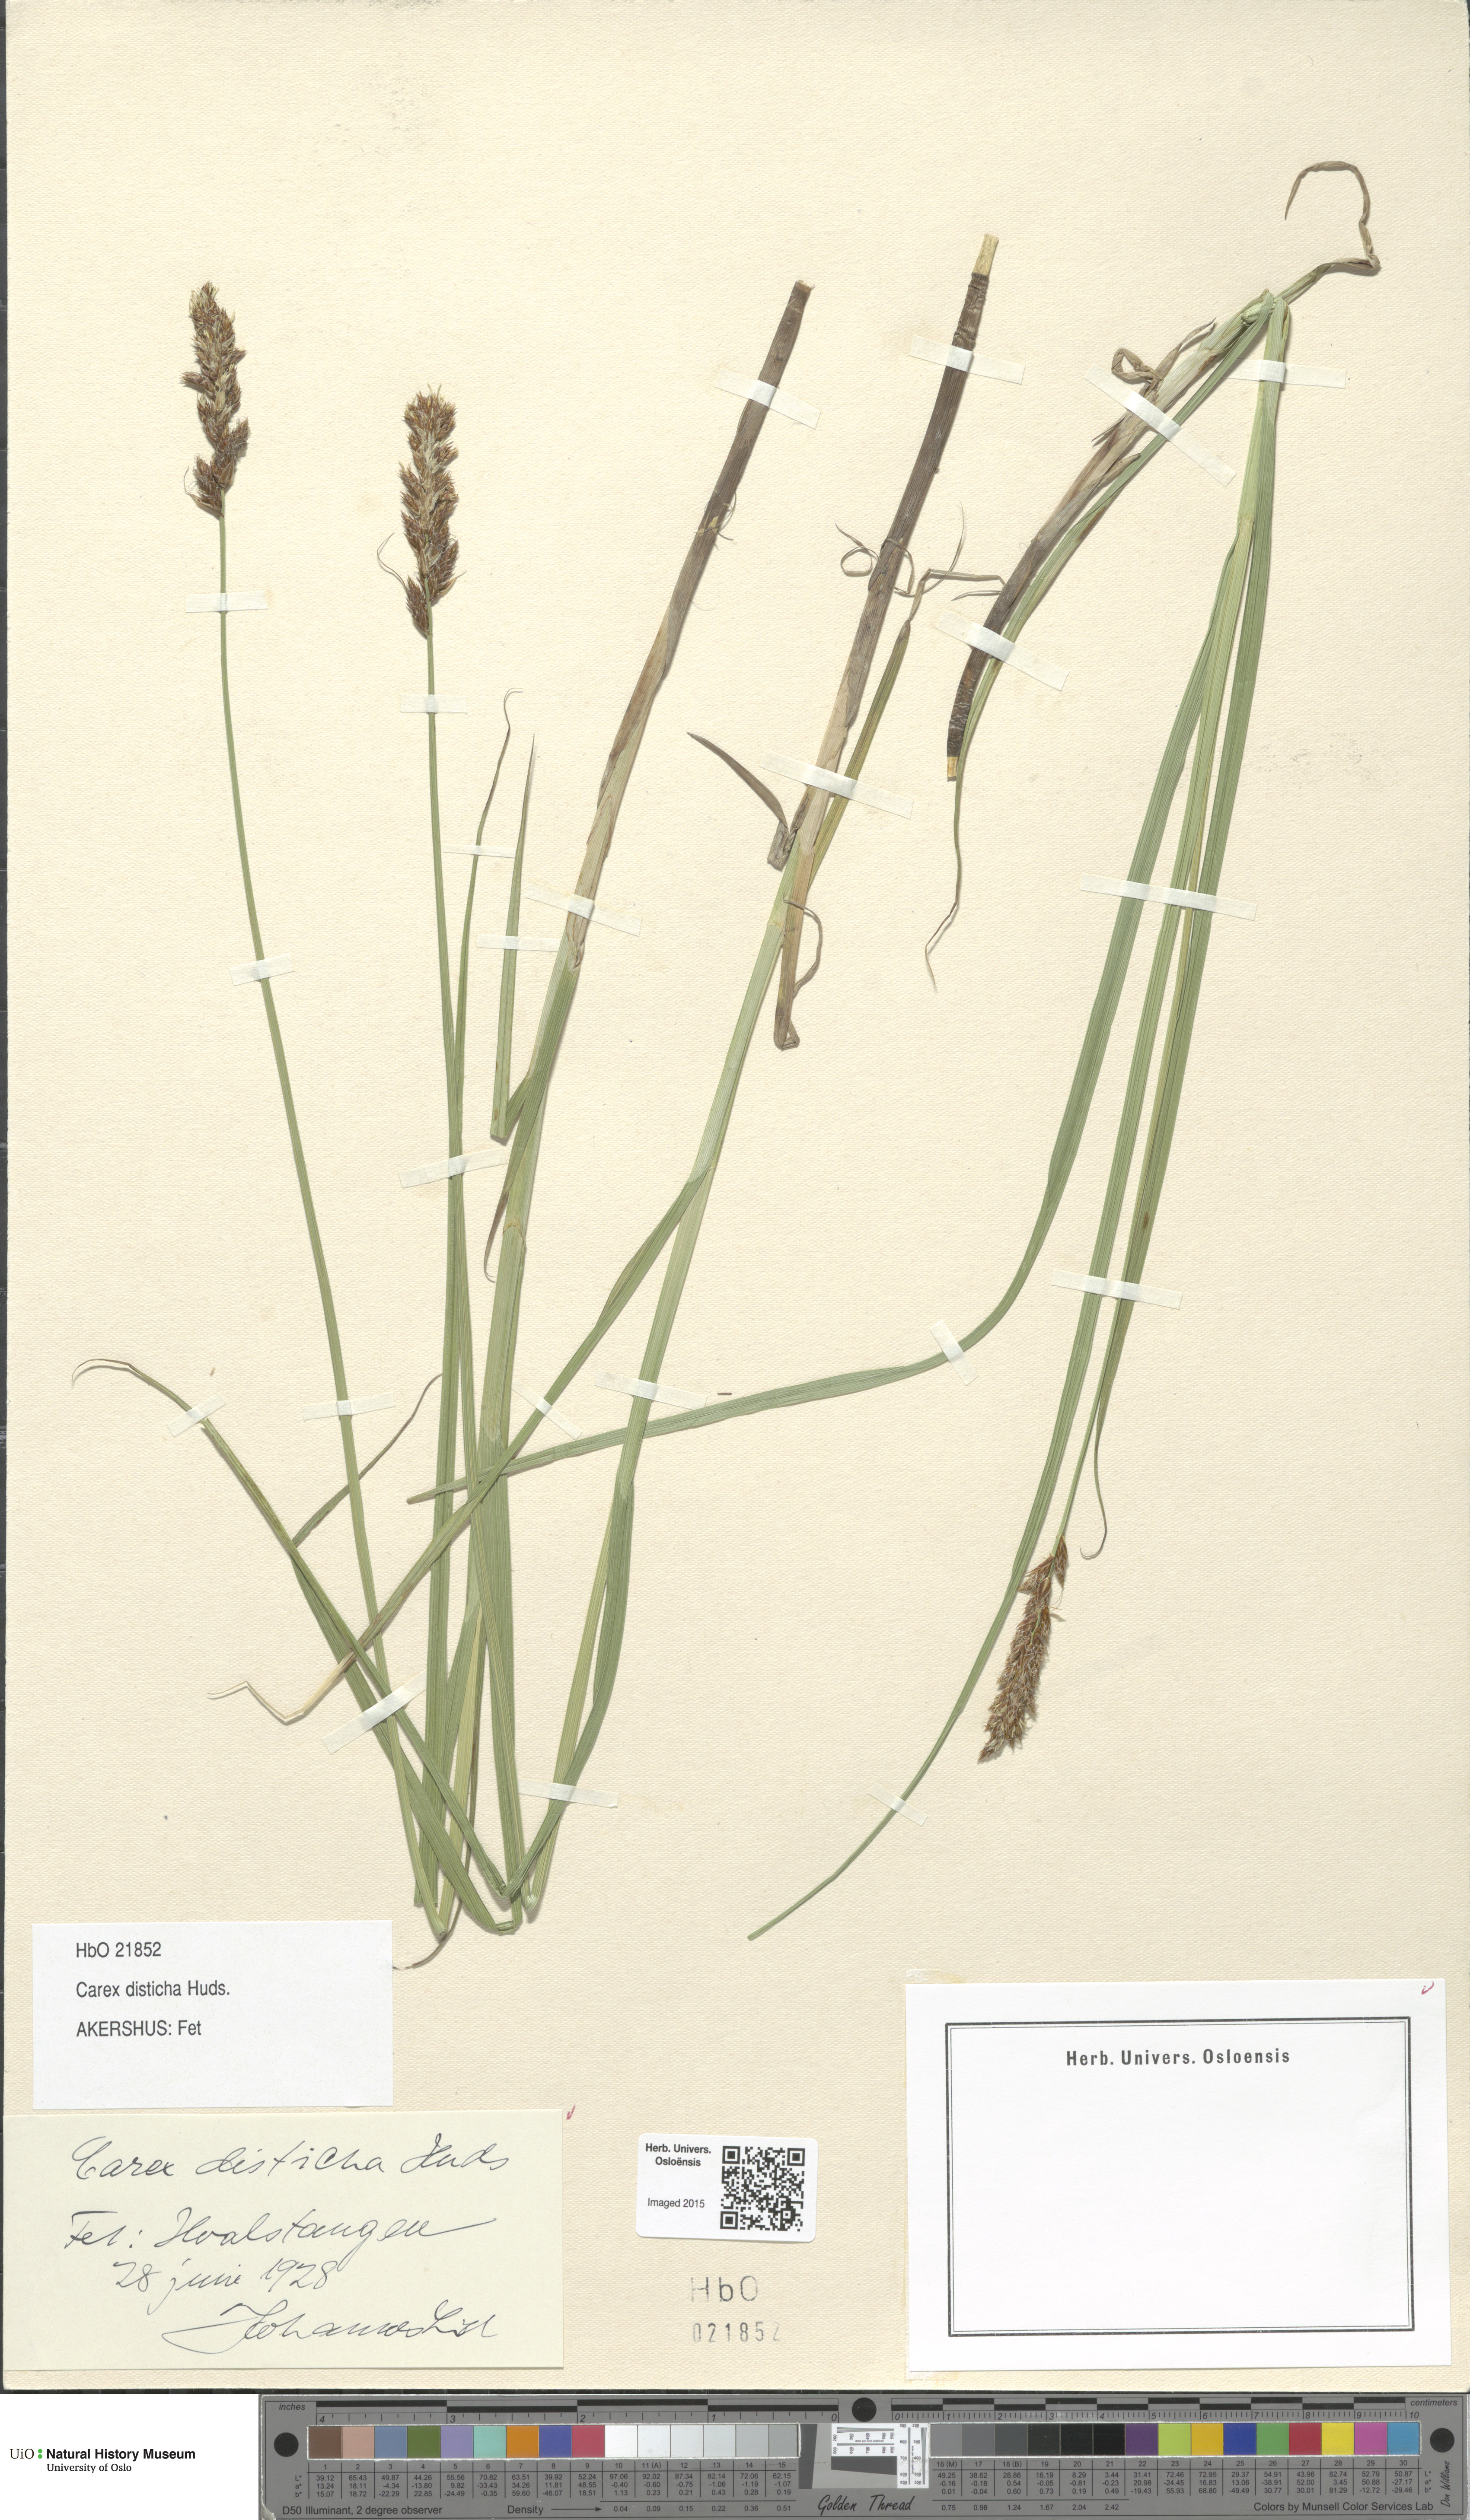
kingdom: Plantae
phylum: Tracheophyta
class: Liliopsida
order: Poales
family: Cyperaceae
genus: Carex
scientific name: Carex disticha
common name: Brown sedge
